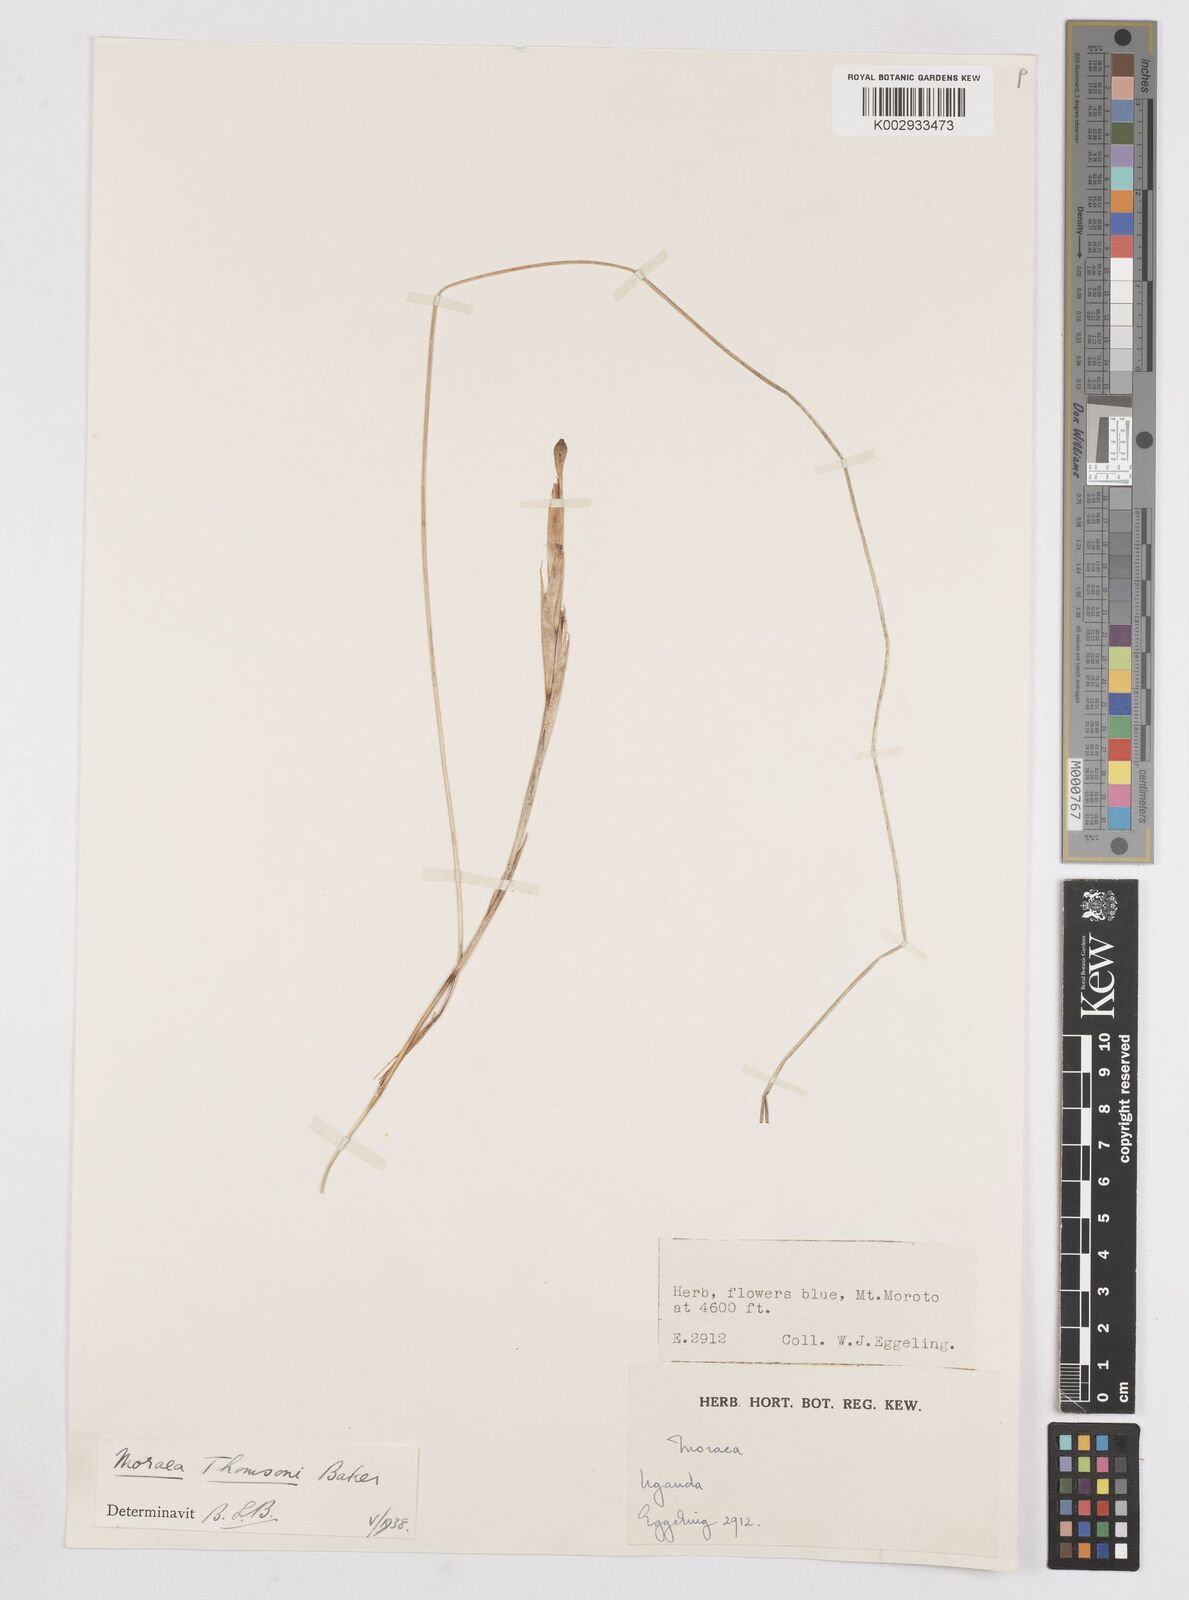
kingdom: Plantae
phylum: Tracheophyta
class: Liliopsida
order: Asparagales
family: Iridaceae
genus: Moraea
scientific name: Moraea stricta
